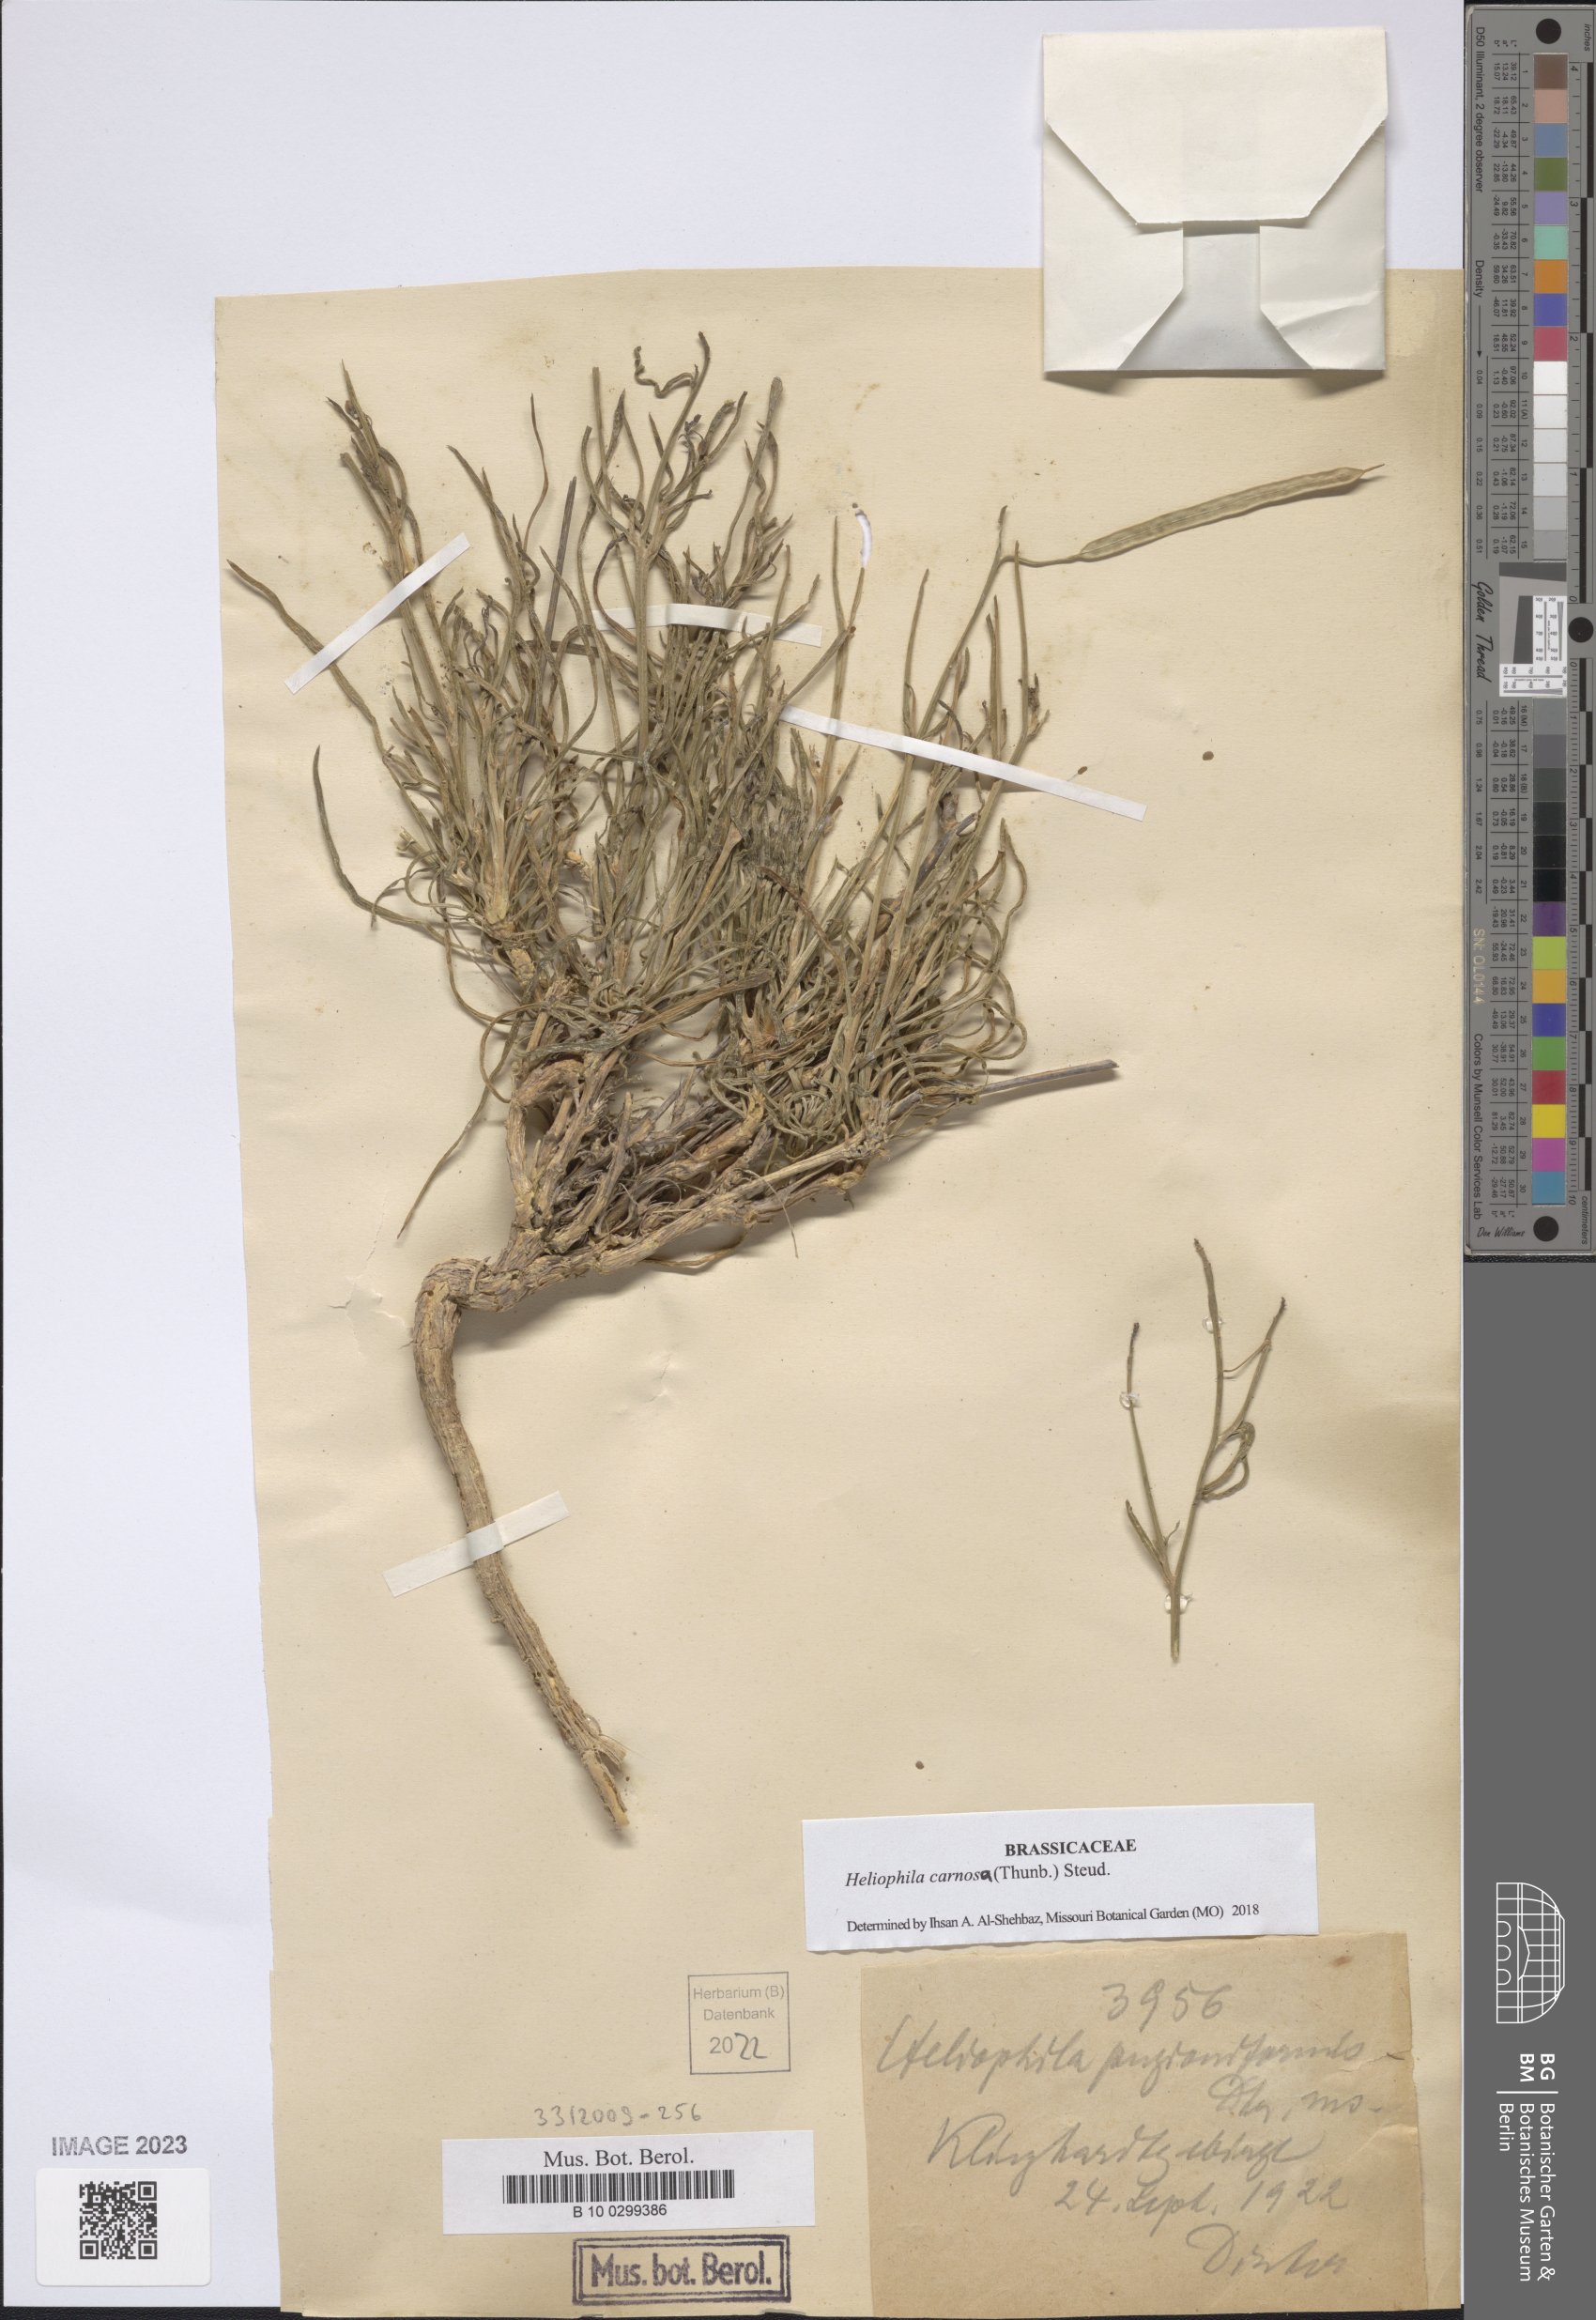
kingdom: Plantae
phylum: Tracheophyta
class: Magnoliopsida
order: Brassicales
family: Brassicaceae
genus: Heliophila
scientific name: Heliophila carnosa
